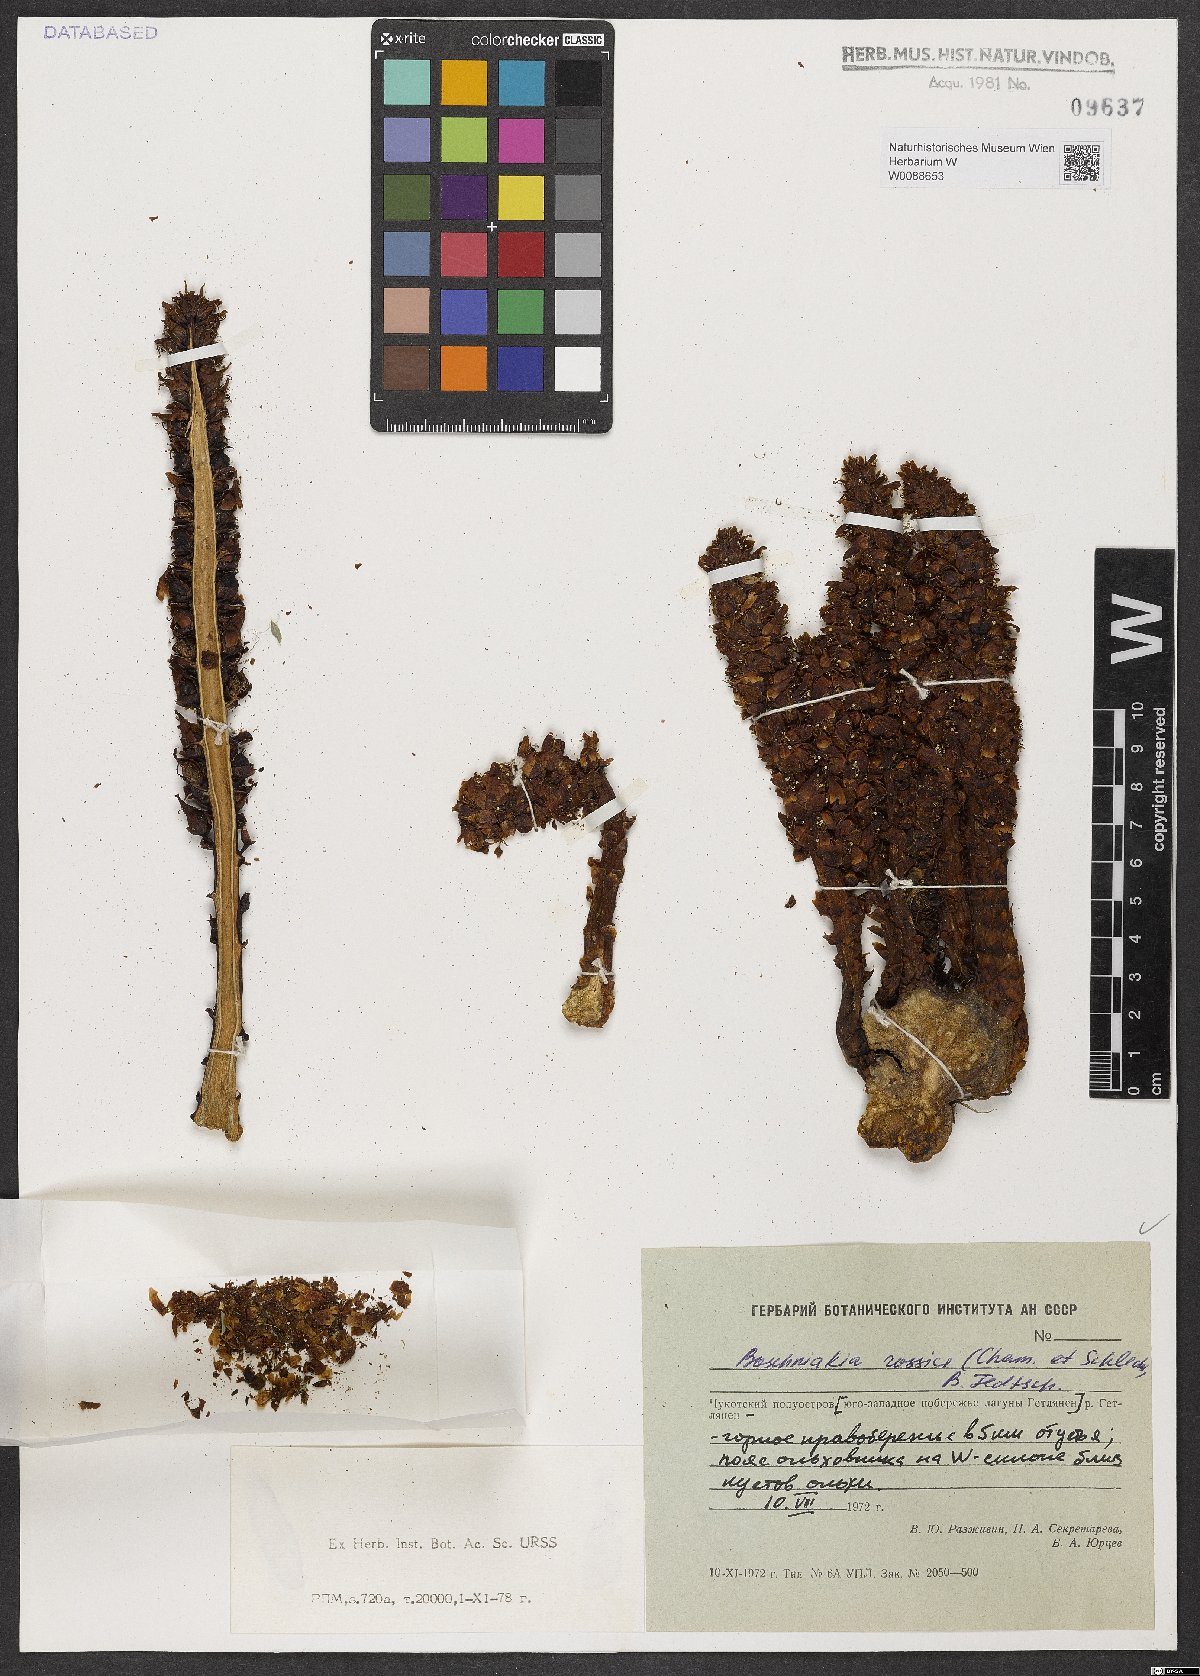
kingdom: Plantae
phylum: Tracheophyta
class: Magnoliopsida
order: Lamiales
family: Orobanchaceae
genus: Boschniakia
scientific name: Boschniakia rossica
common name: Poque
